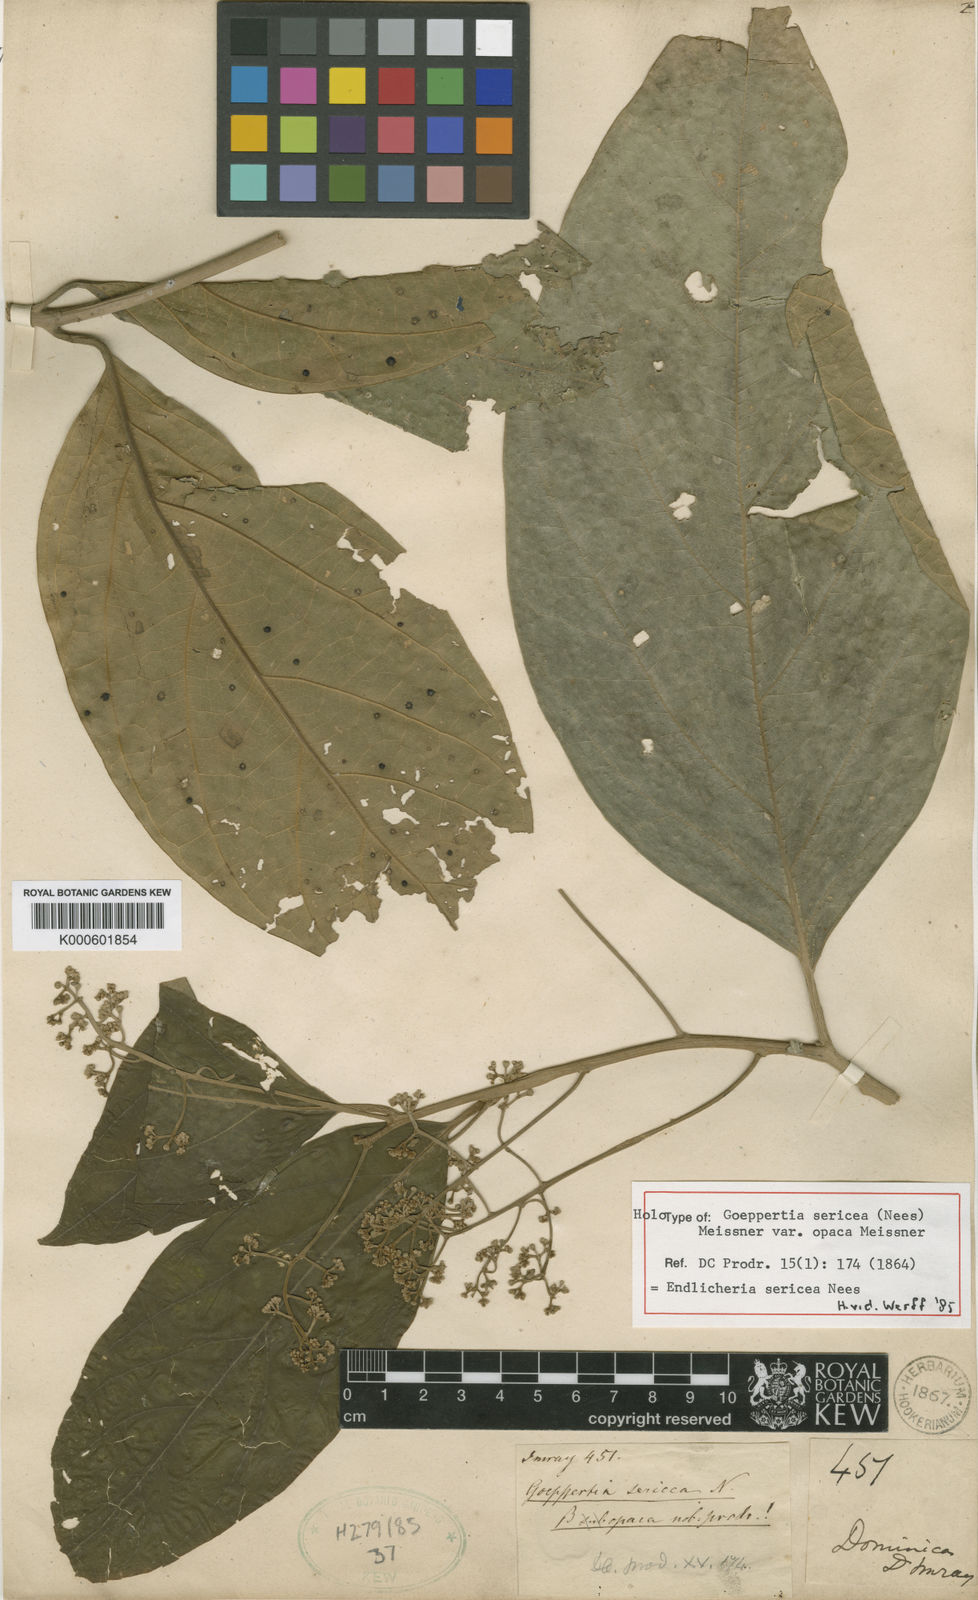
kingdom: Plantae
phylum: Tracheophyta
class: Magnoliopsida
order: Laurales
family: Lauraceae
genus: Endlicheria
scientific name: Endlicheria sericea
